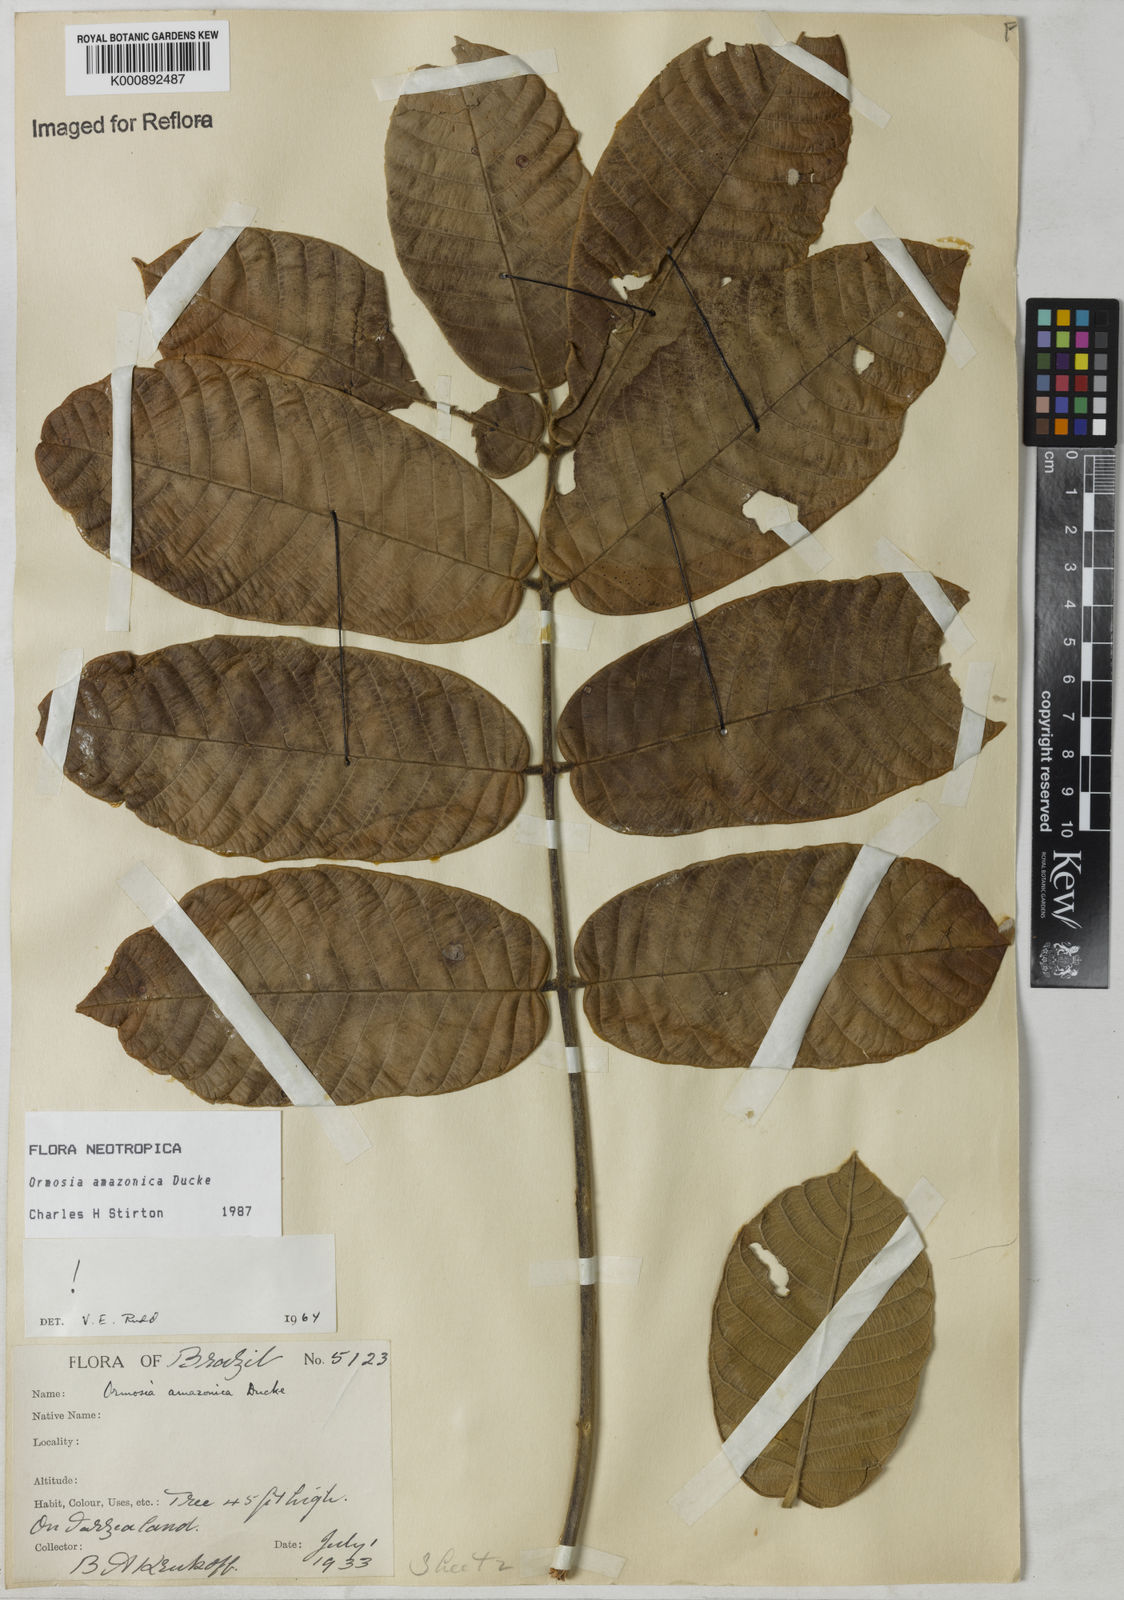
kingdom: Plantae
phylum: Tracheophyta
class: Magnoliopsida
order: Fabales
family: Fabaceae
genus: Ormosia
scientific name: Ormosia amazonica
